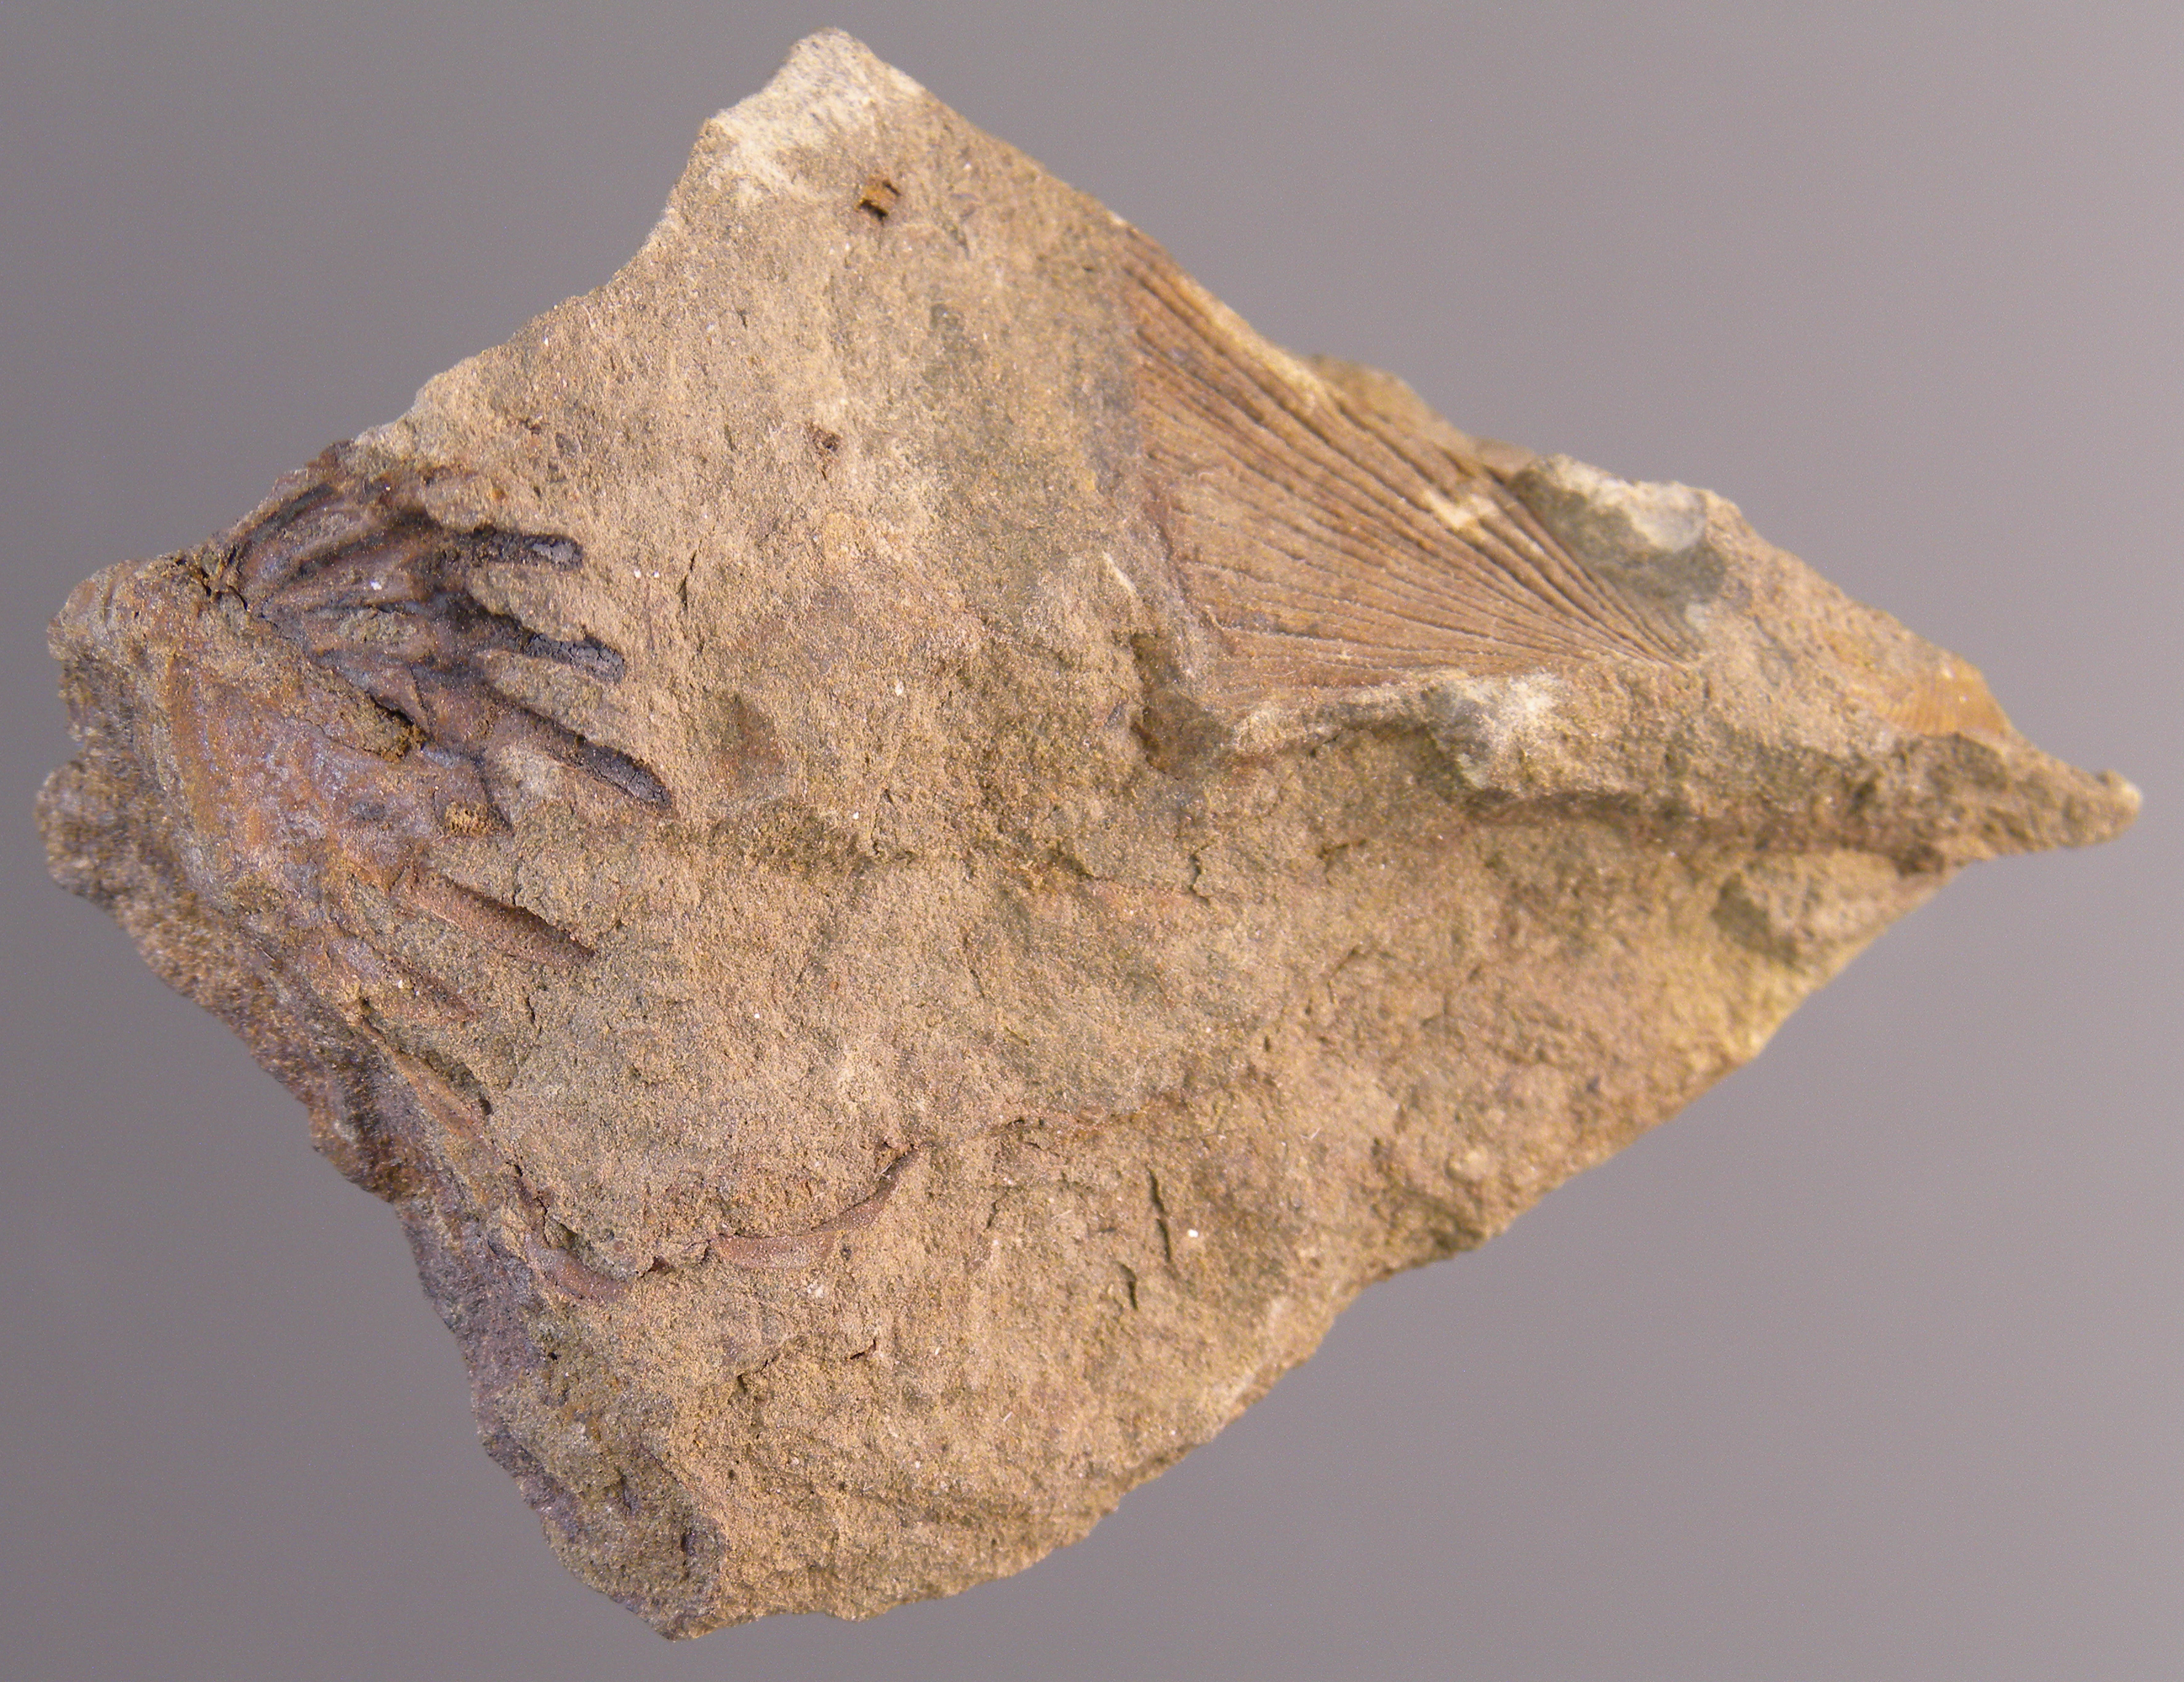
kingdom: Animalia
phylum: Arthropoda
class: Trilobita
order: Phacopida
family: Acastidae
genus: Braunops
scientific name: Braunops
